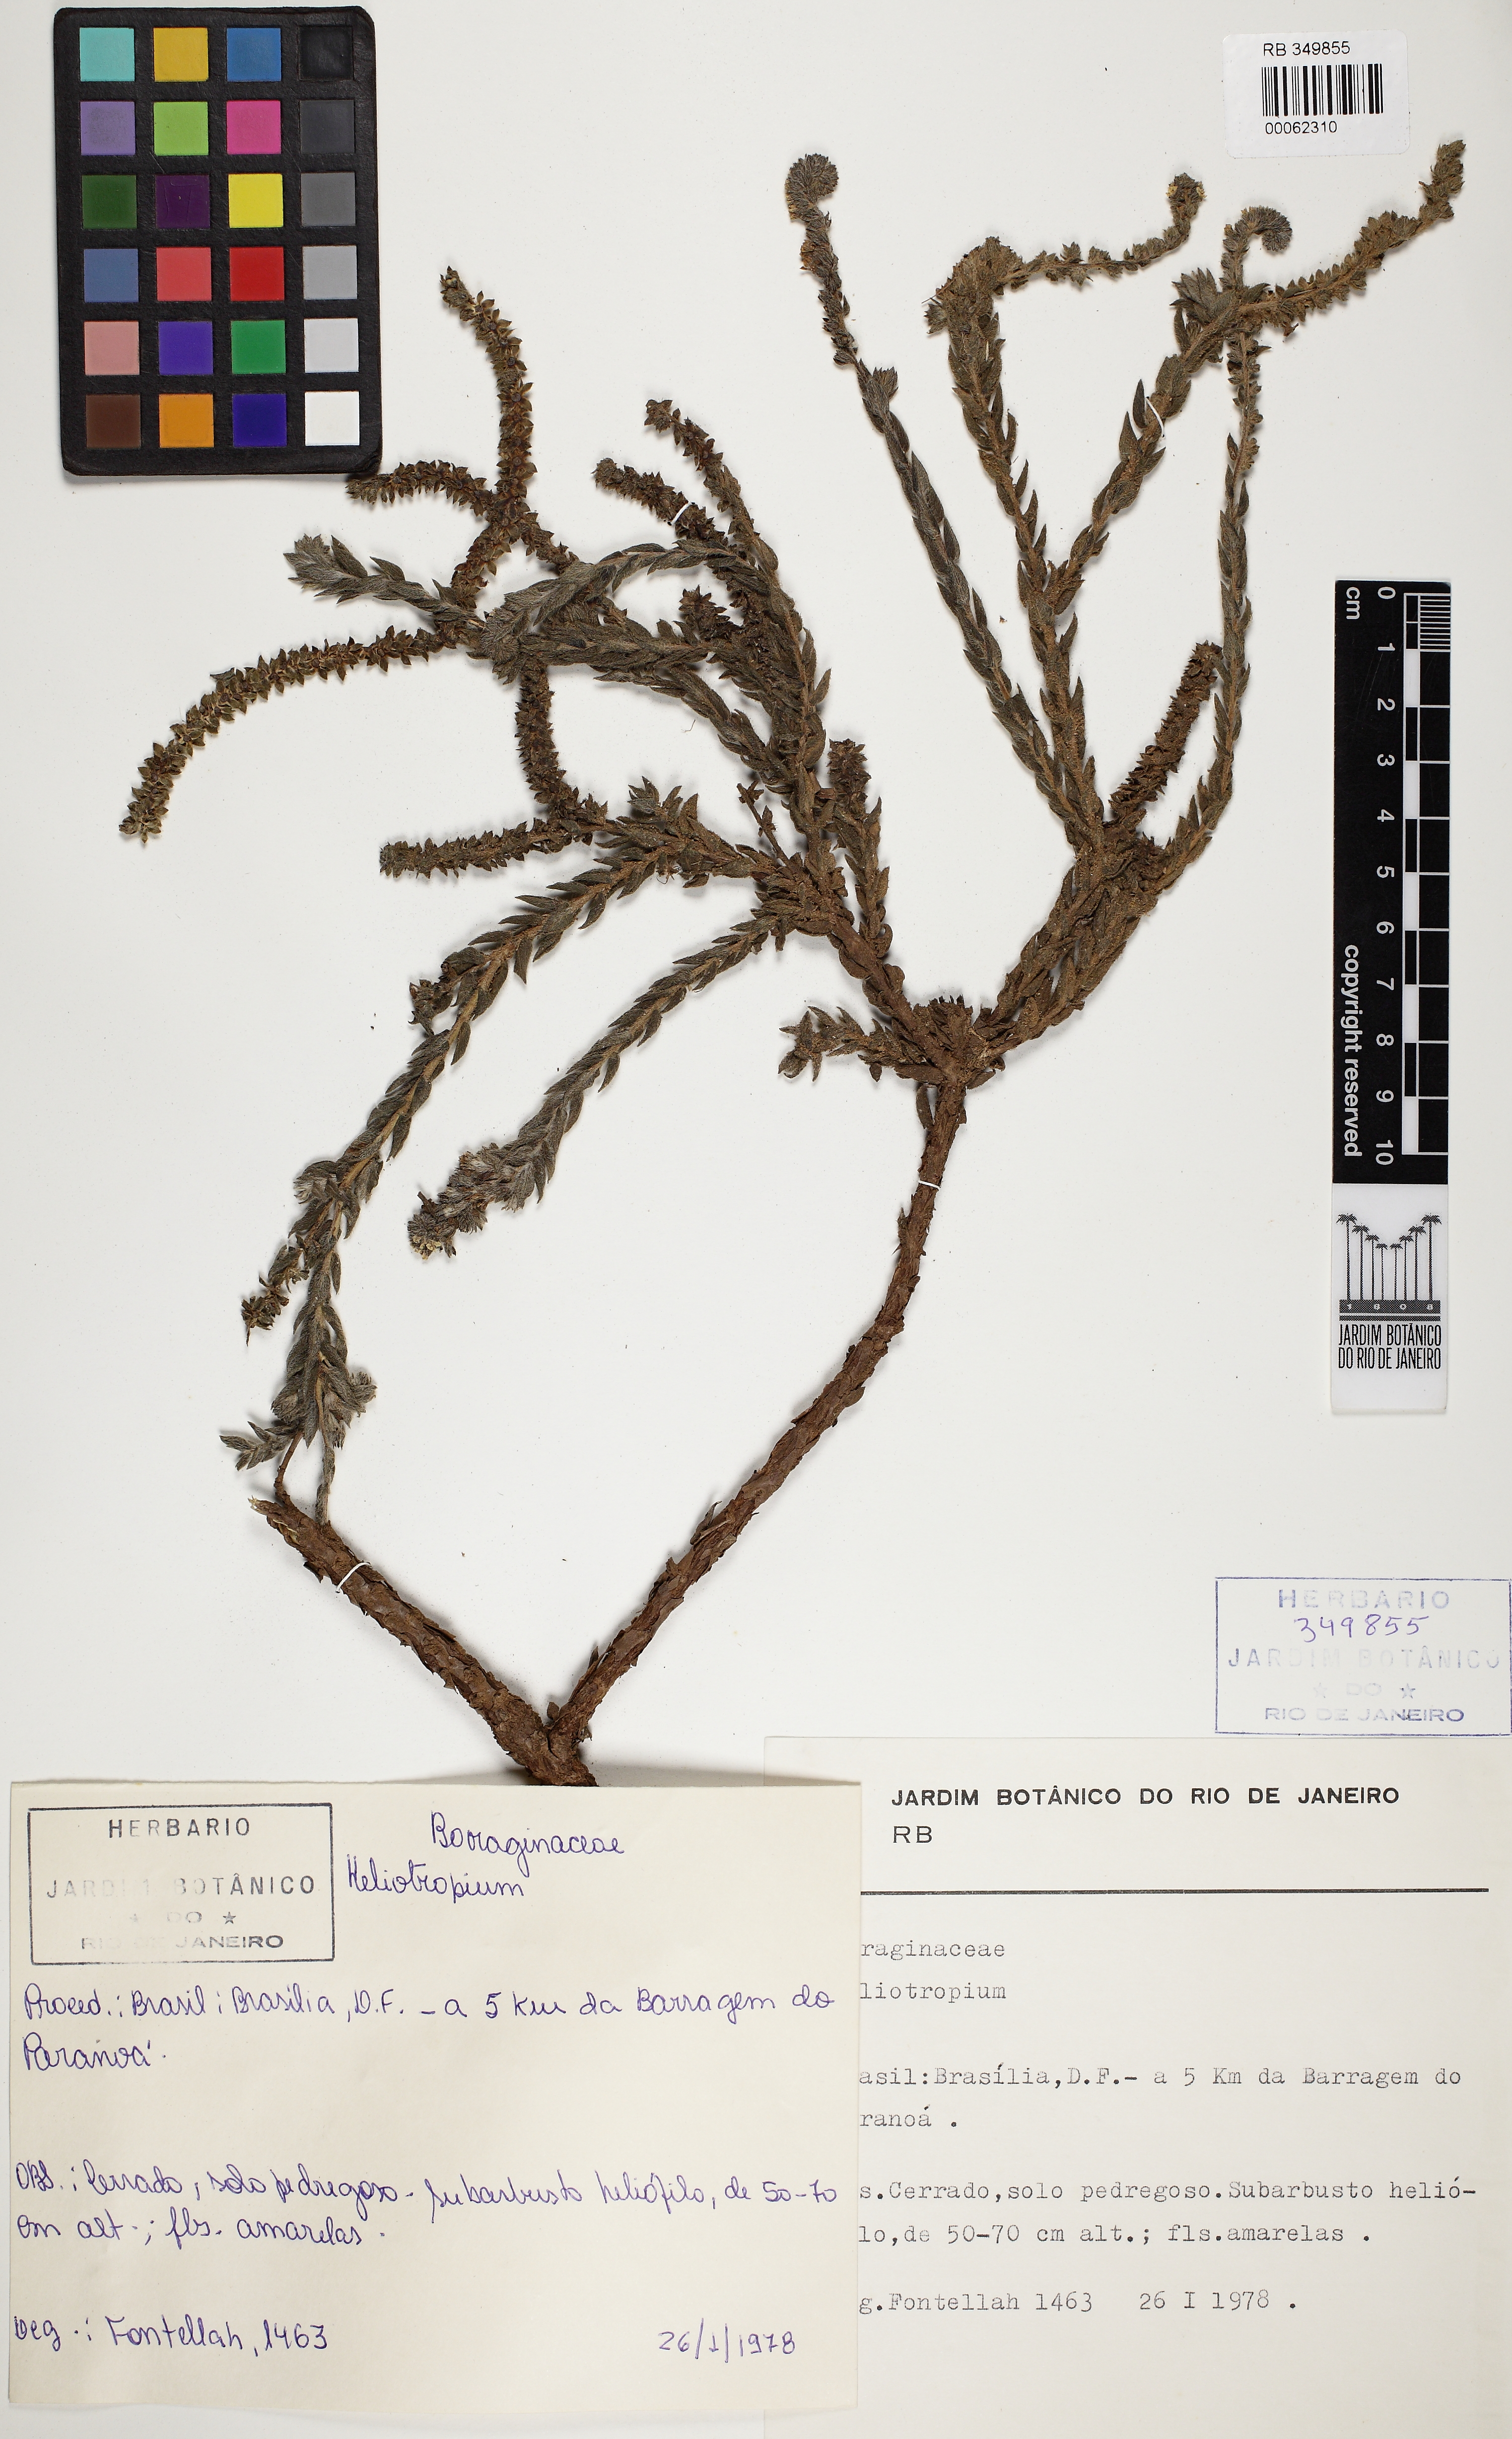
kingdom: Plantae
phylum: Tracheophyta
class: Magnoliopsida
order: Boraginales
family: Heliotropiaceae
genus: Euploca
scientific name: Euploca salicoides
